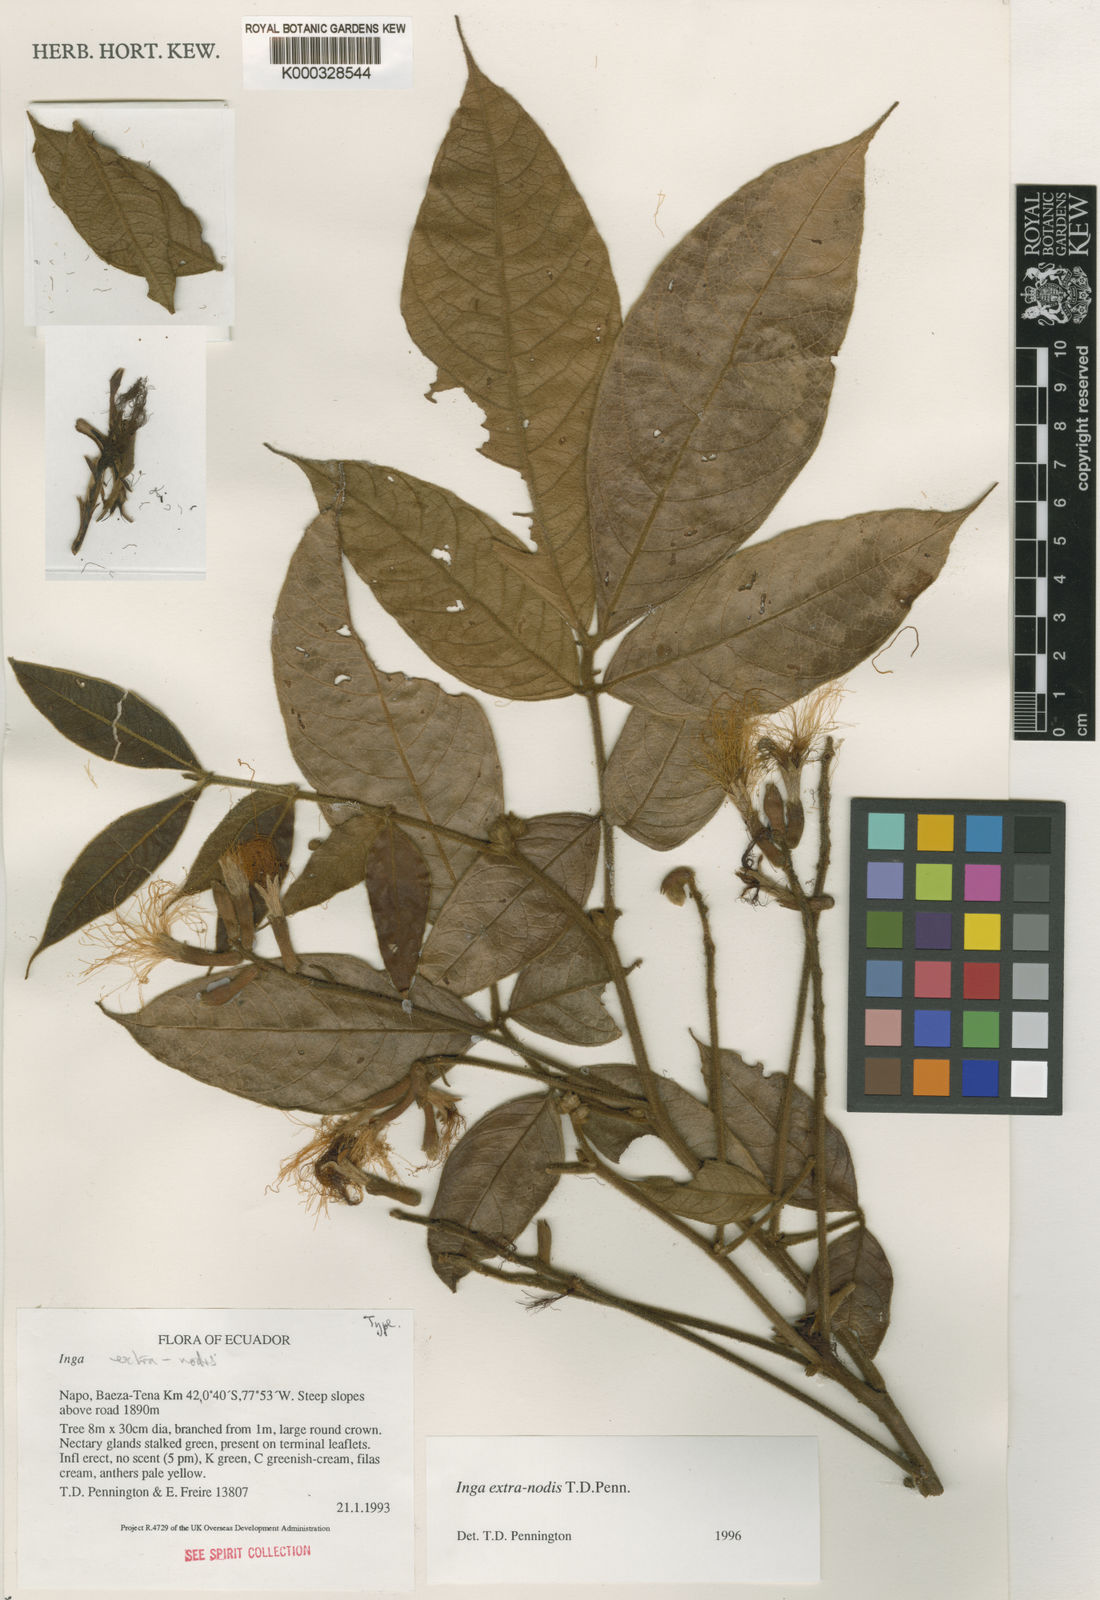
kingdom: Plantae
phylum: Tracheophyta
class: Magnoliopsida
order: Fabales
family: Fabaceae
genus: Inga
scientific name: Inga extra-nodis
